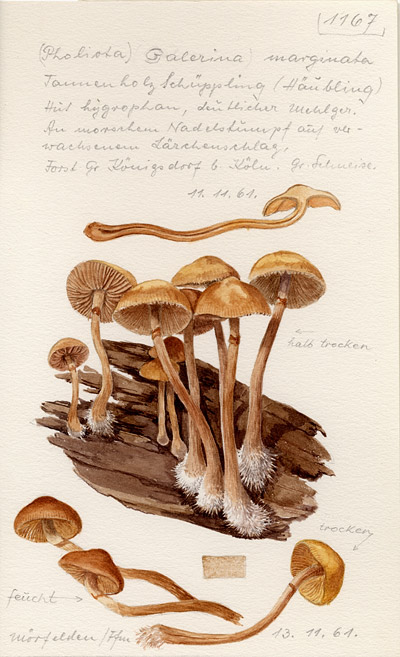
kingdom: Fungi
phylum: Basidiomycota
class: Agaricomycetes
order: Agaricales
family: Hymenogastraceae
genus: Galerina
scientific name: Galerina marginata
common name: Funeral bell
